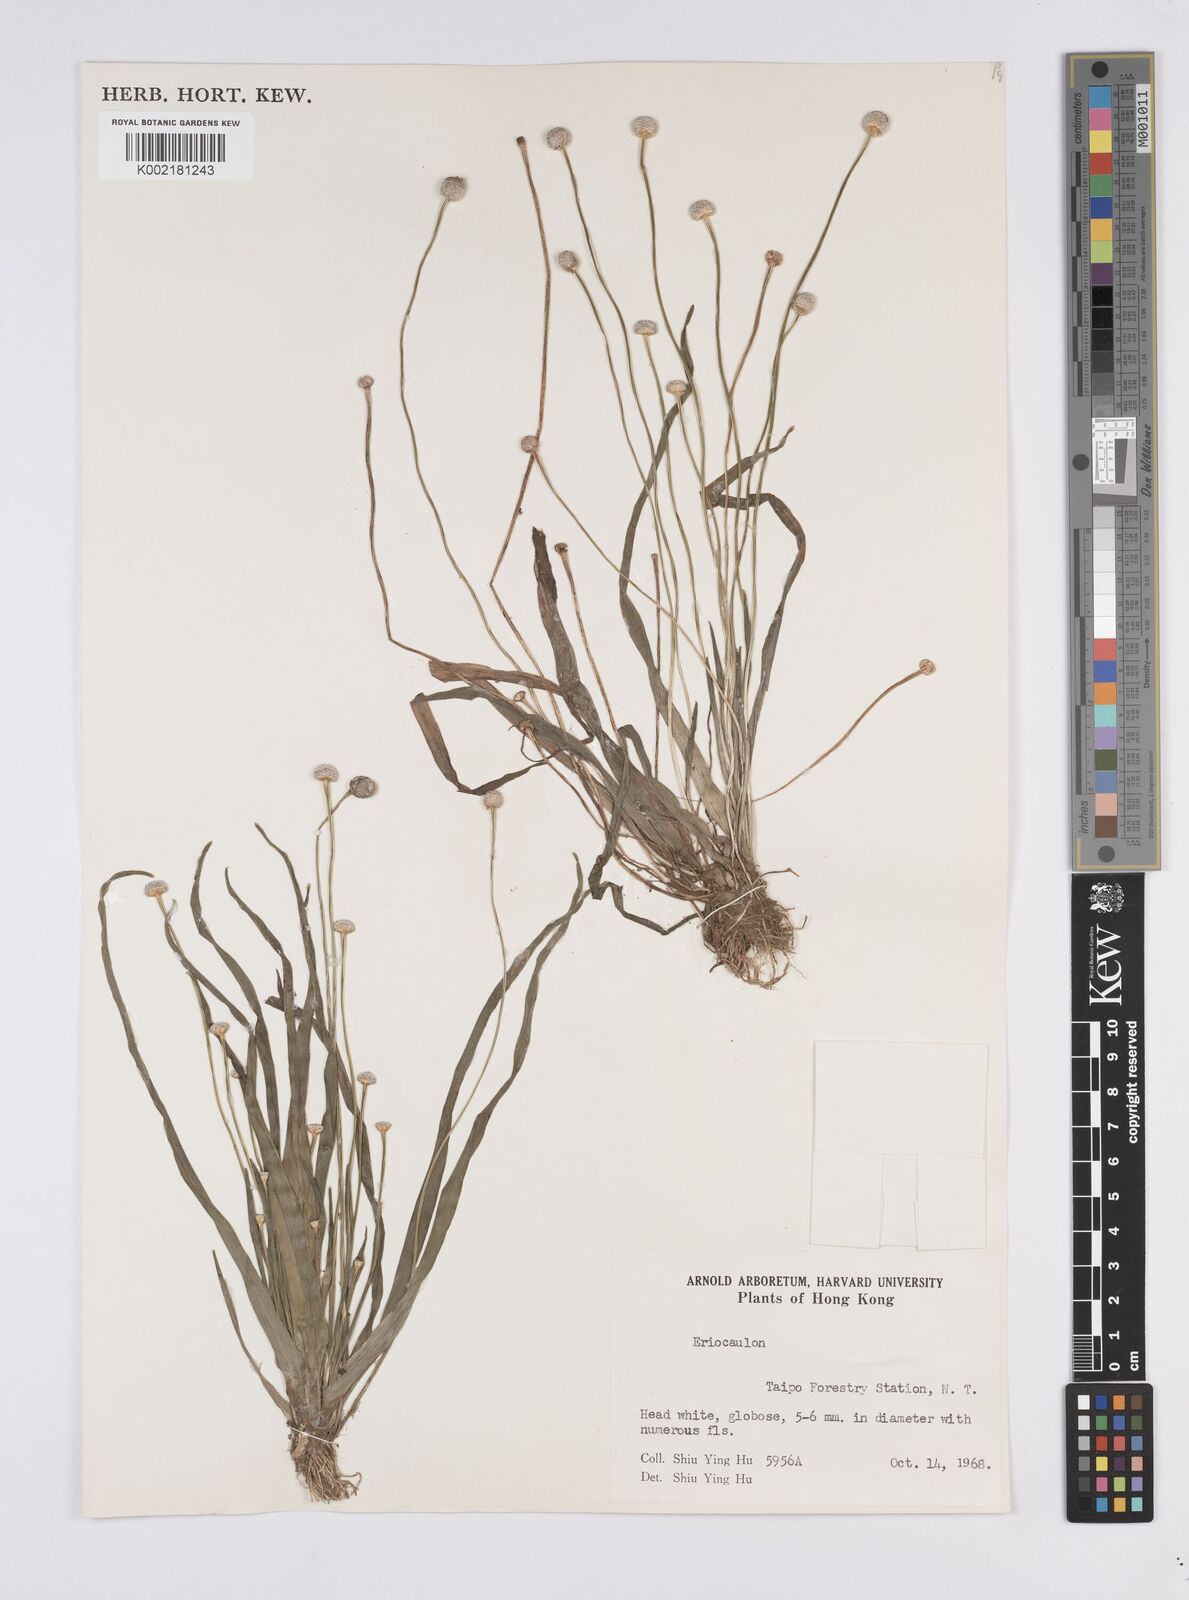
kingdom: Plantae
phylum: Tracheophyta
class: Liliopsida
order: Poales
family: Eriocaulaceae
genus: Eriocaulon
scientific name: Eriocaulon
